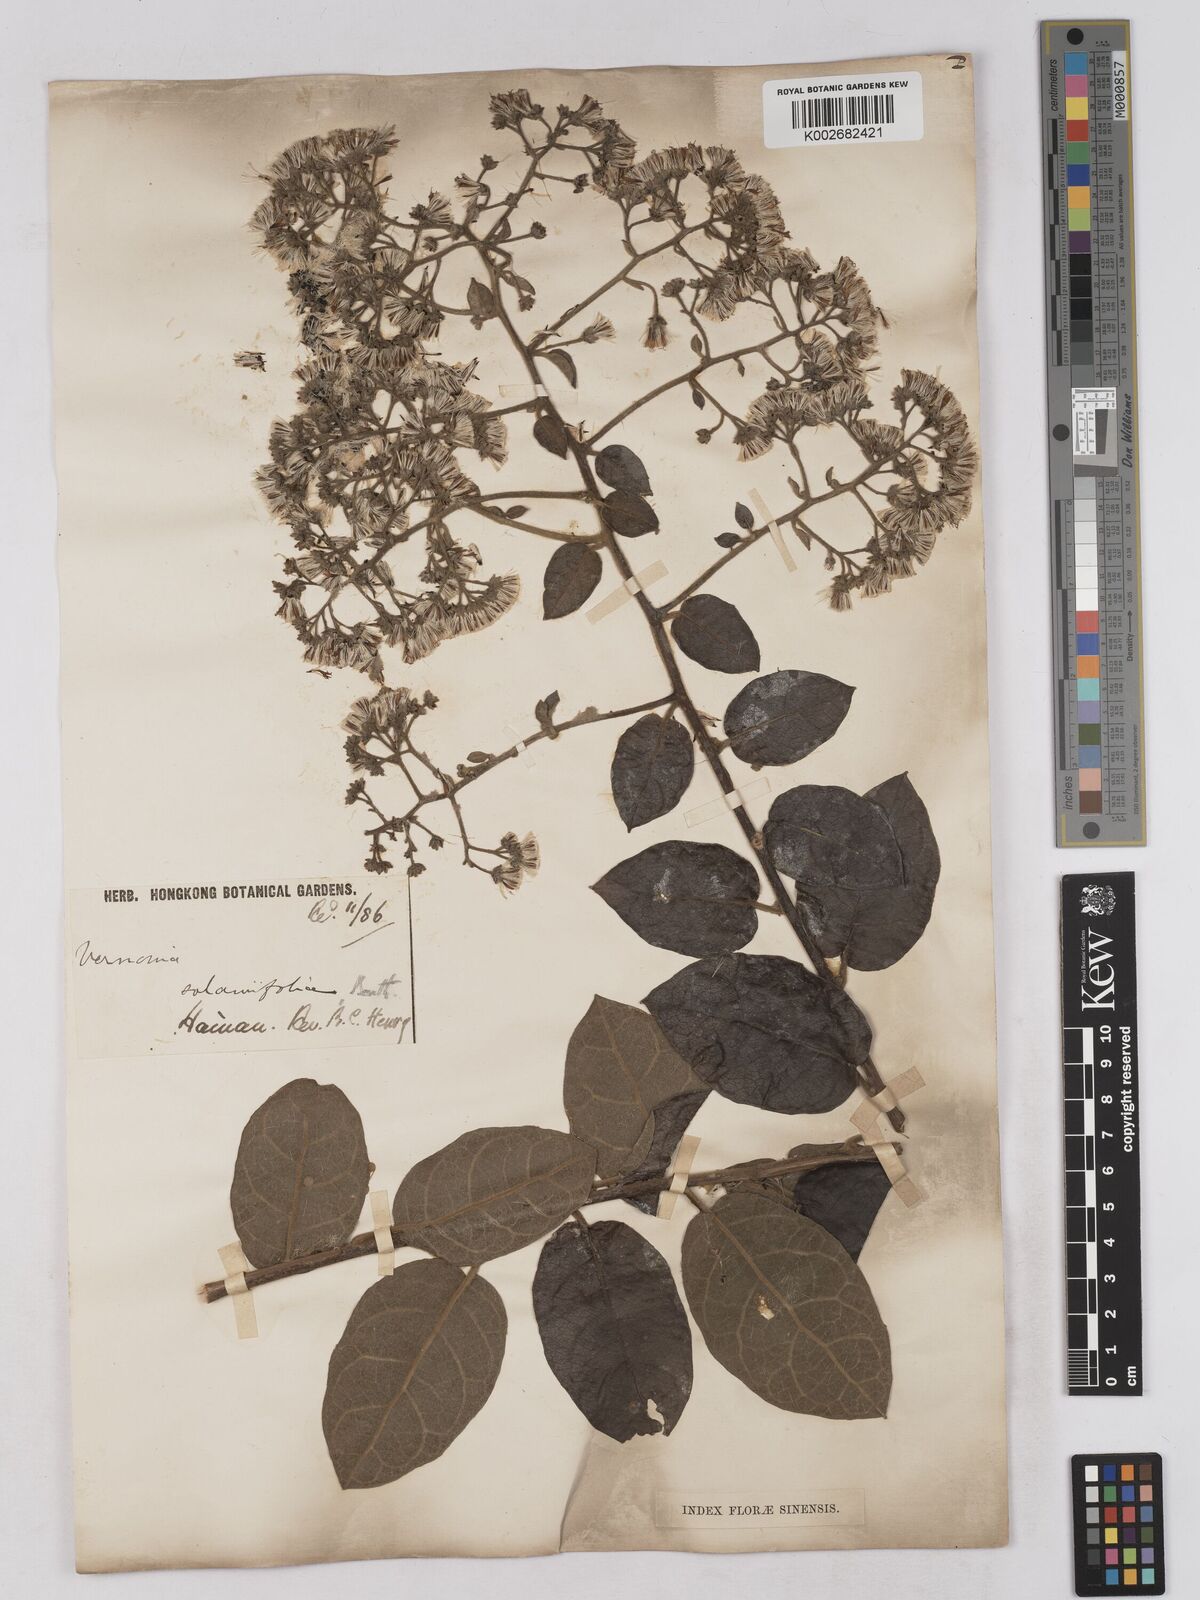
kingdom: Plantae
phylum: Tracheophyta
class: Magnoliopsida
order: Asterales
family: Asteraceae
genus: Strobocalyx
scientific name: Strobocalyx solanifolia
